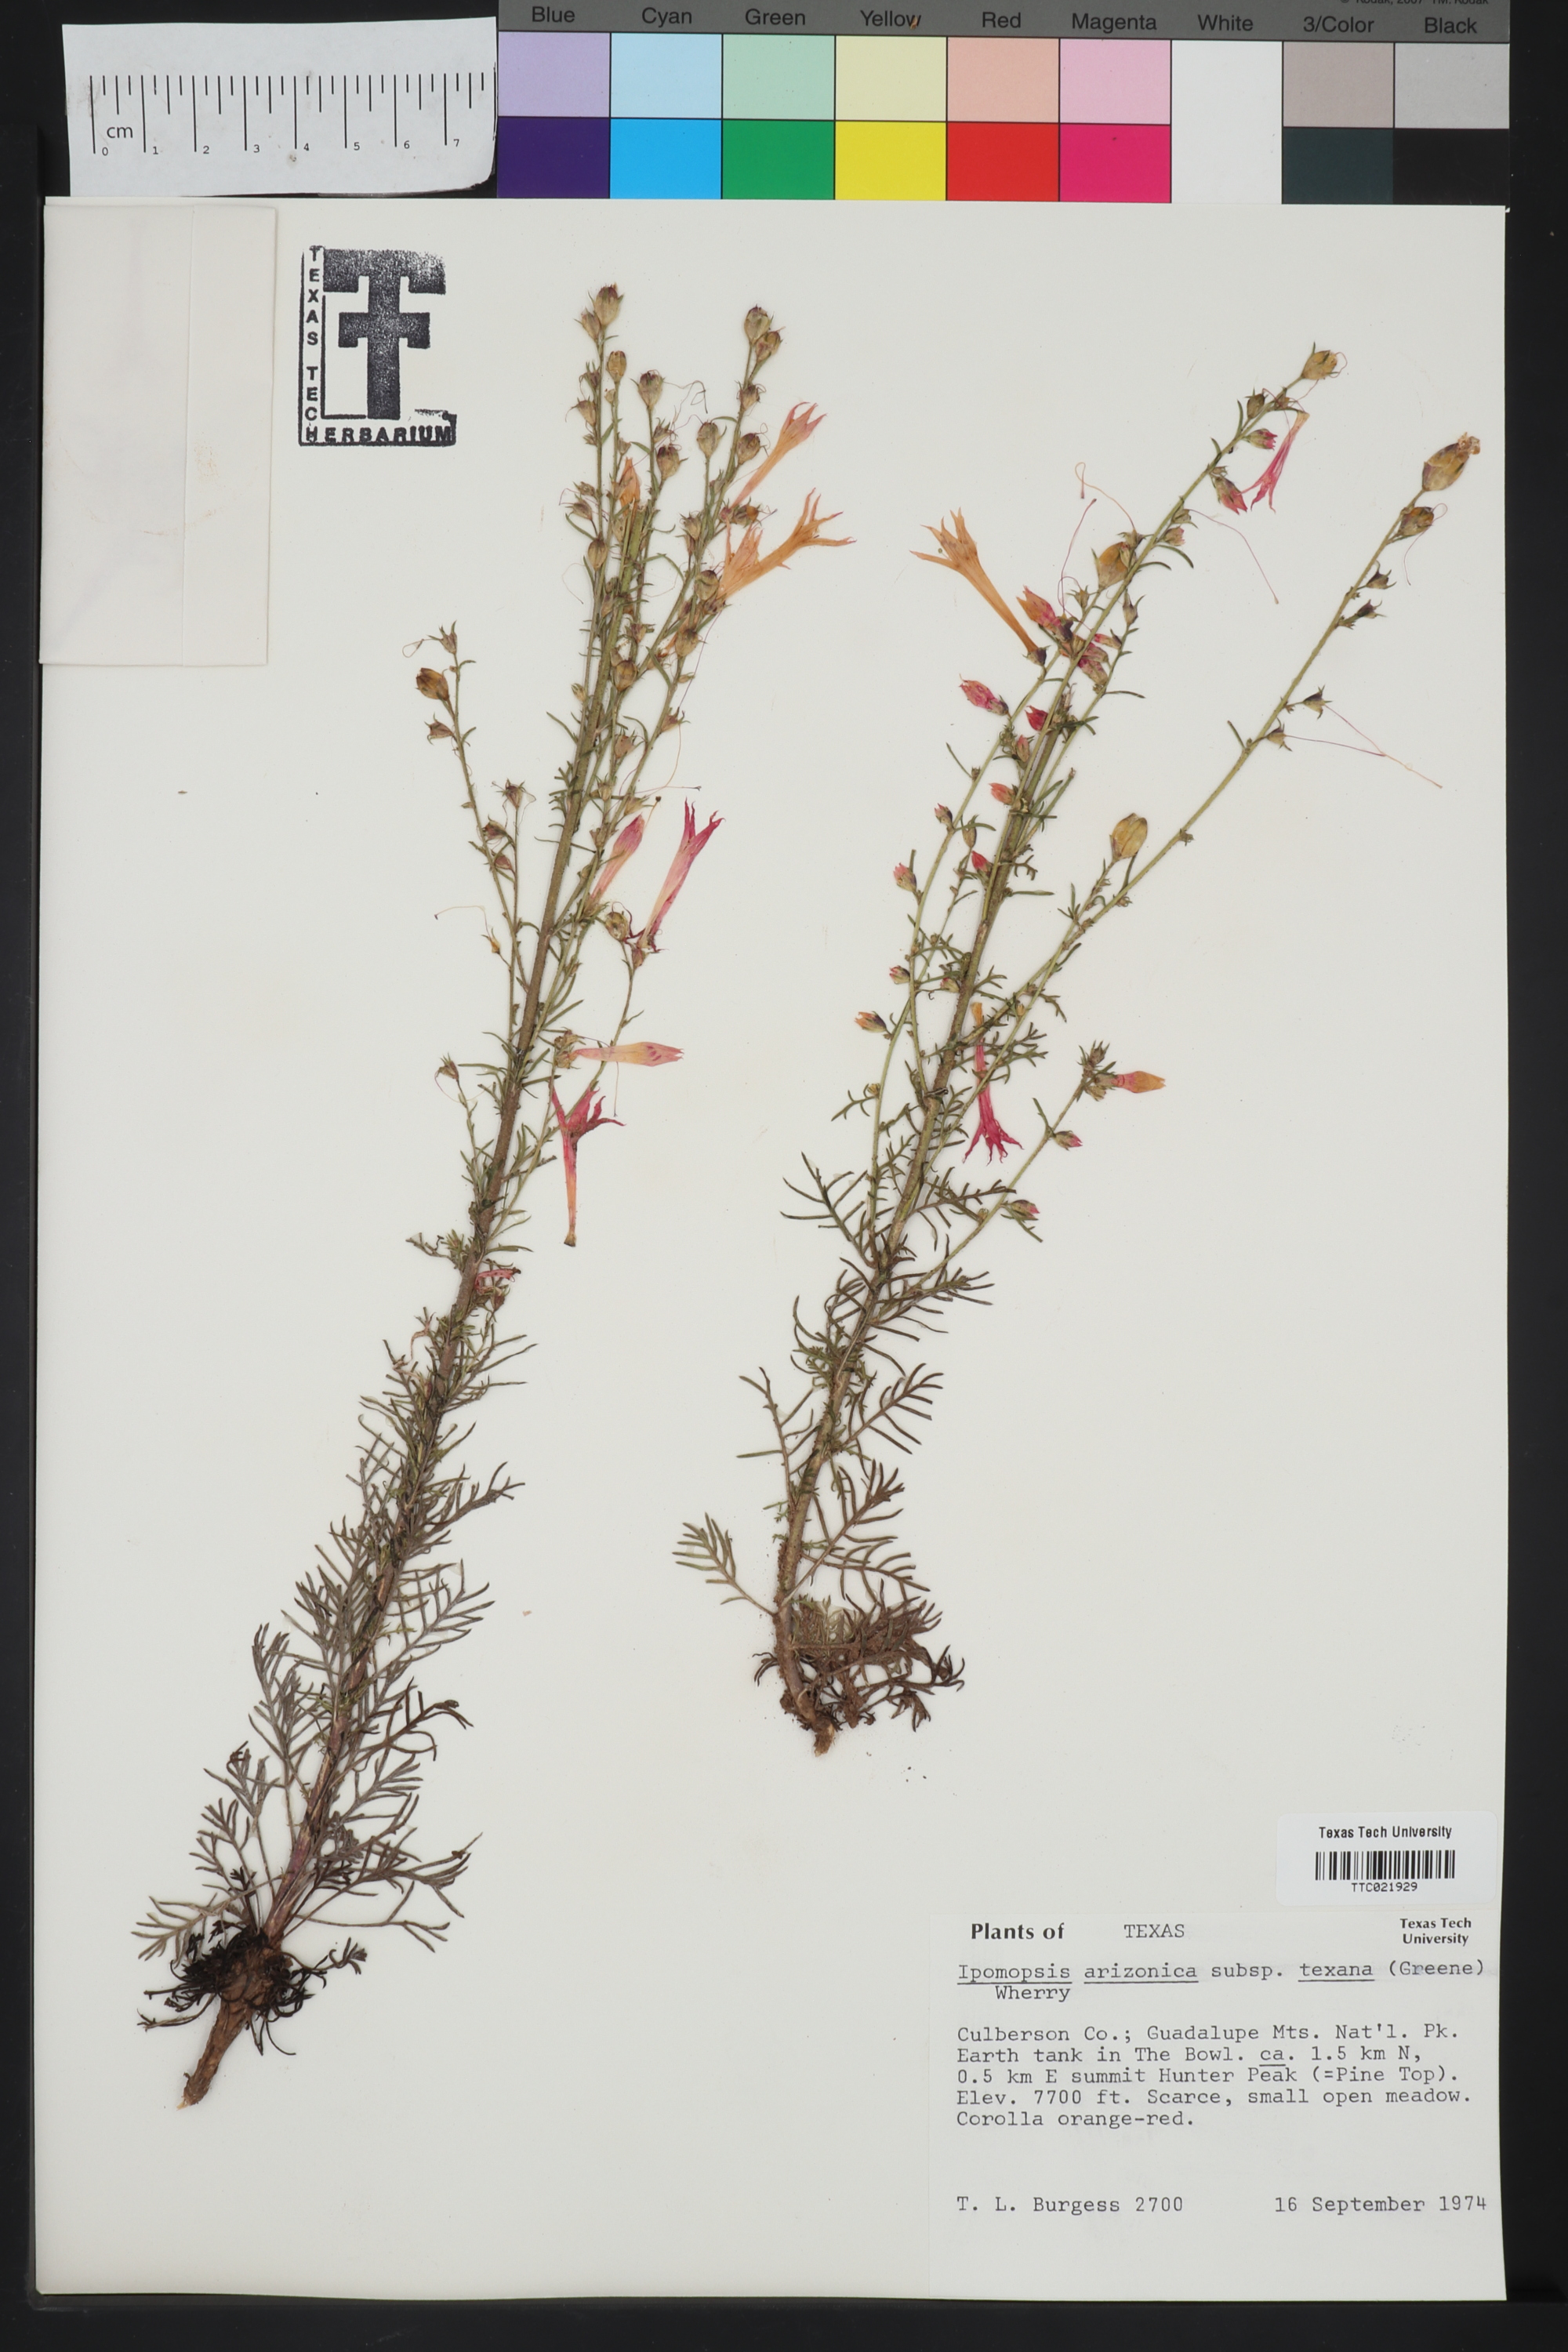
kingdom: Plantae
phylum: Tracheophyta
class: Magnoliopsida
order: Ericales
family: Polemoniaceae
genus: Ipomopsis
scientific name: Ipomopsis aggregata
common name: Scarlet gilia
